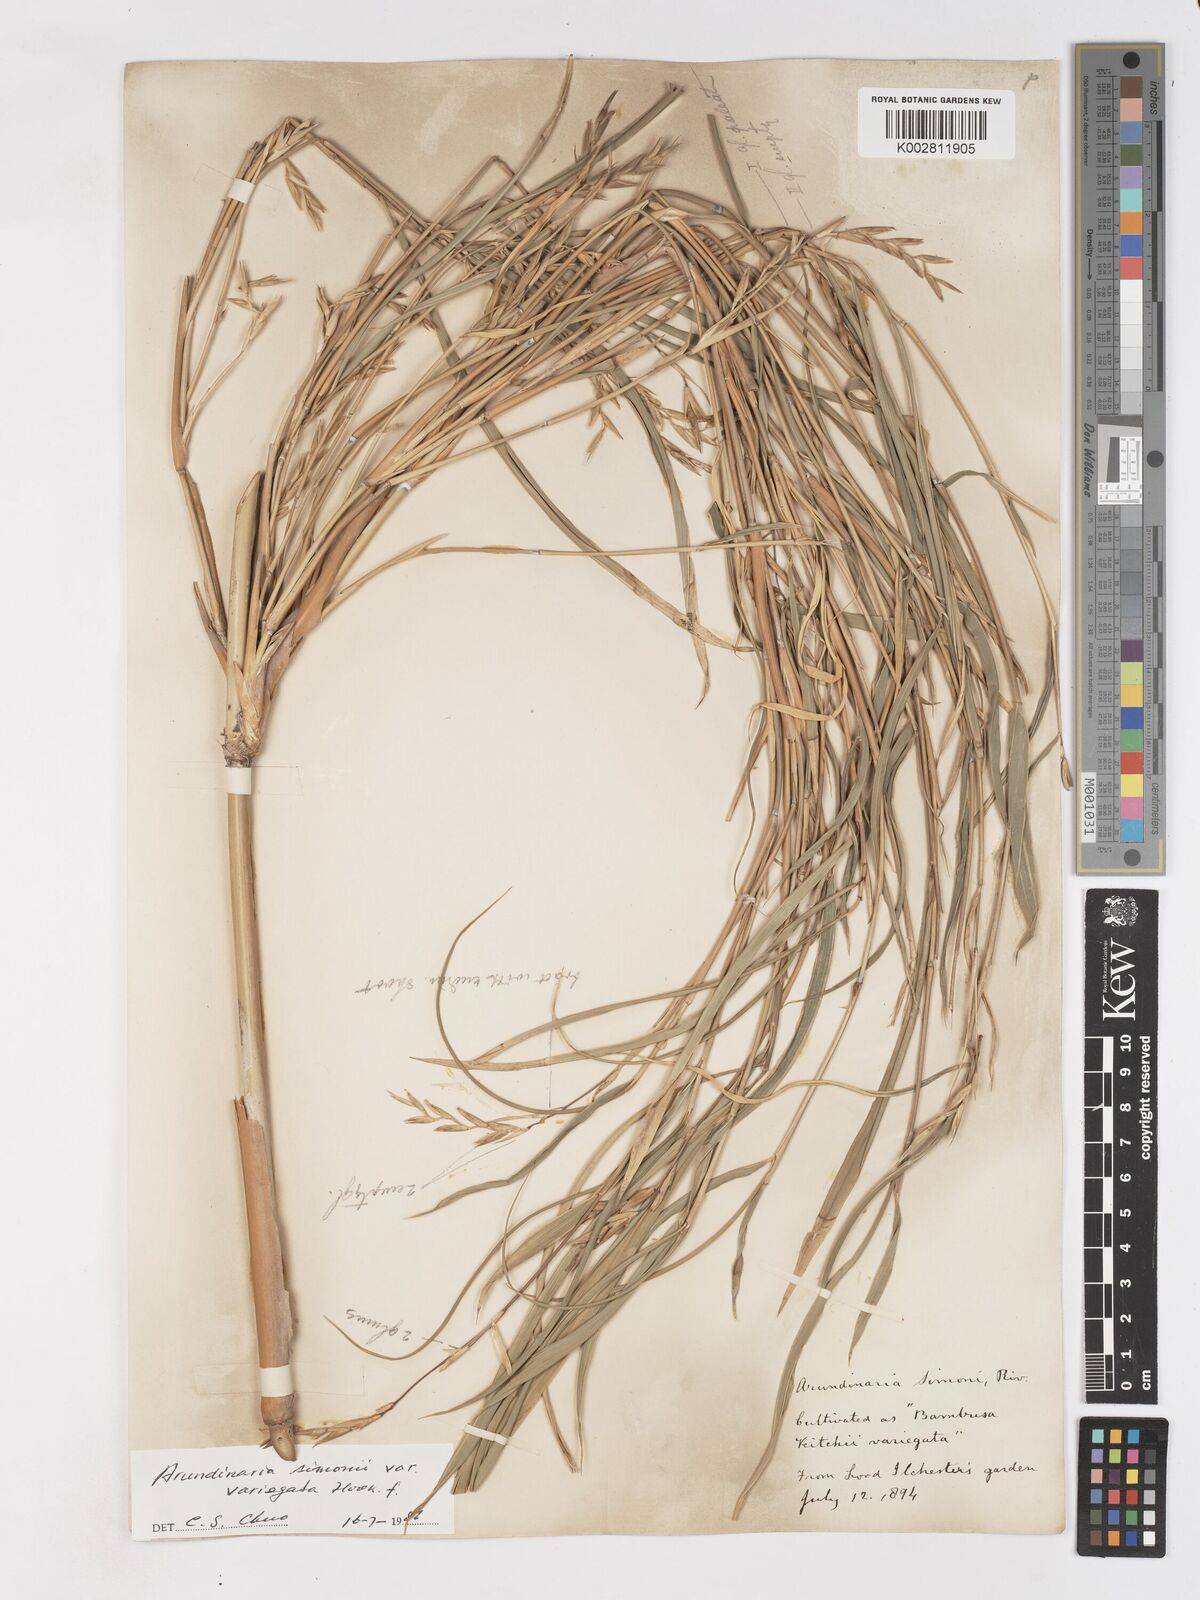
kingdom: Plantae
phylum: Tracheophyta
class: Liliopsida
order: Poales
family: Poaceae
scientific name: Poaceae
